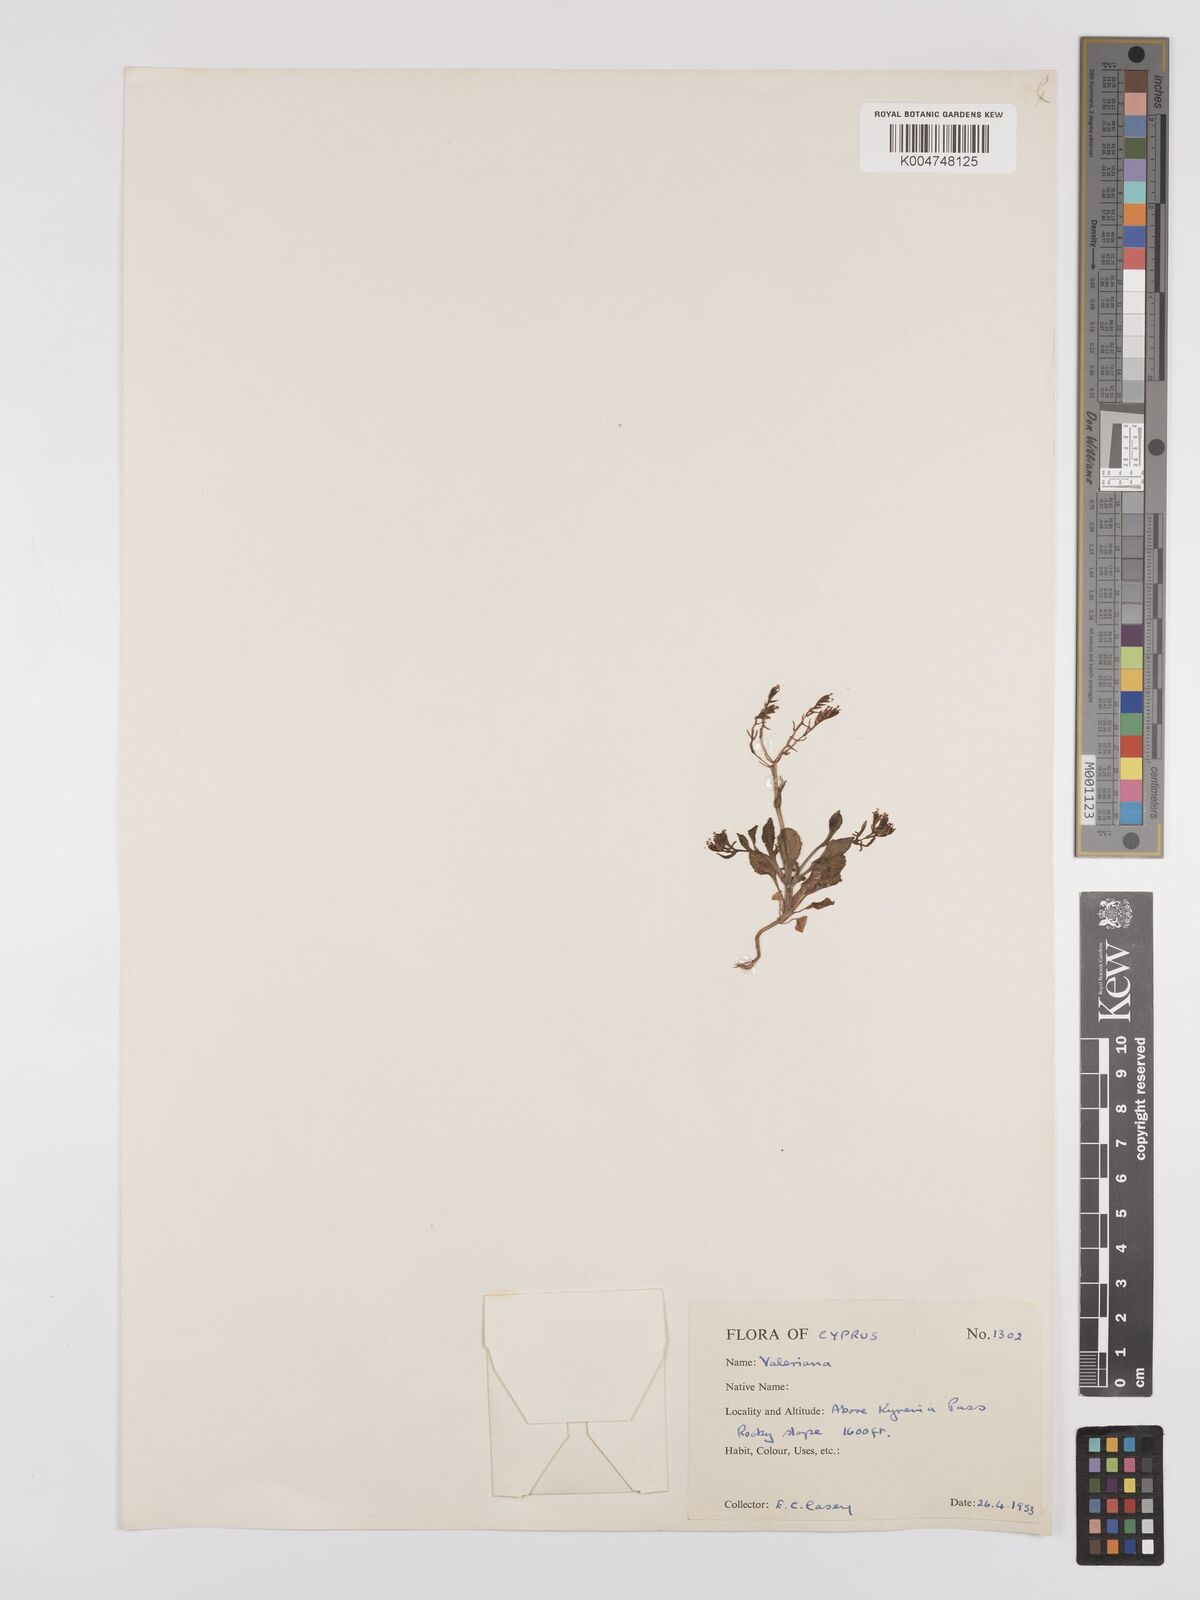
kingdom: Plantae
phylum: Tracheophyta
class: Magnoliopsida
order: Dipsacales
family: Caprifoliaceae
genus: Valeriana
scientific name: Valeriana
